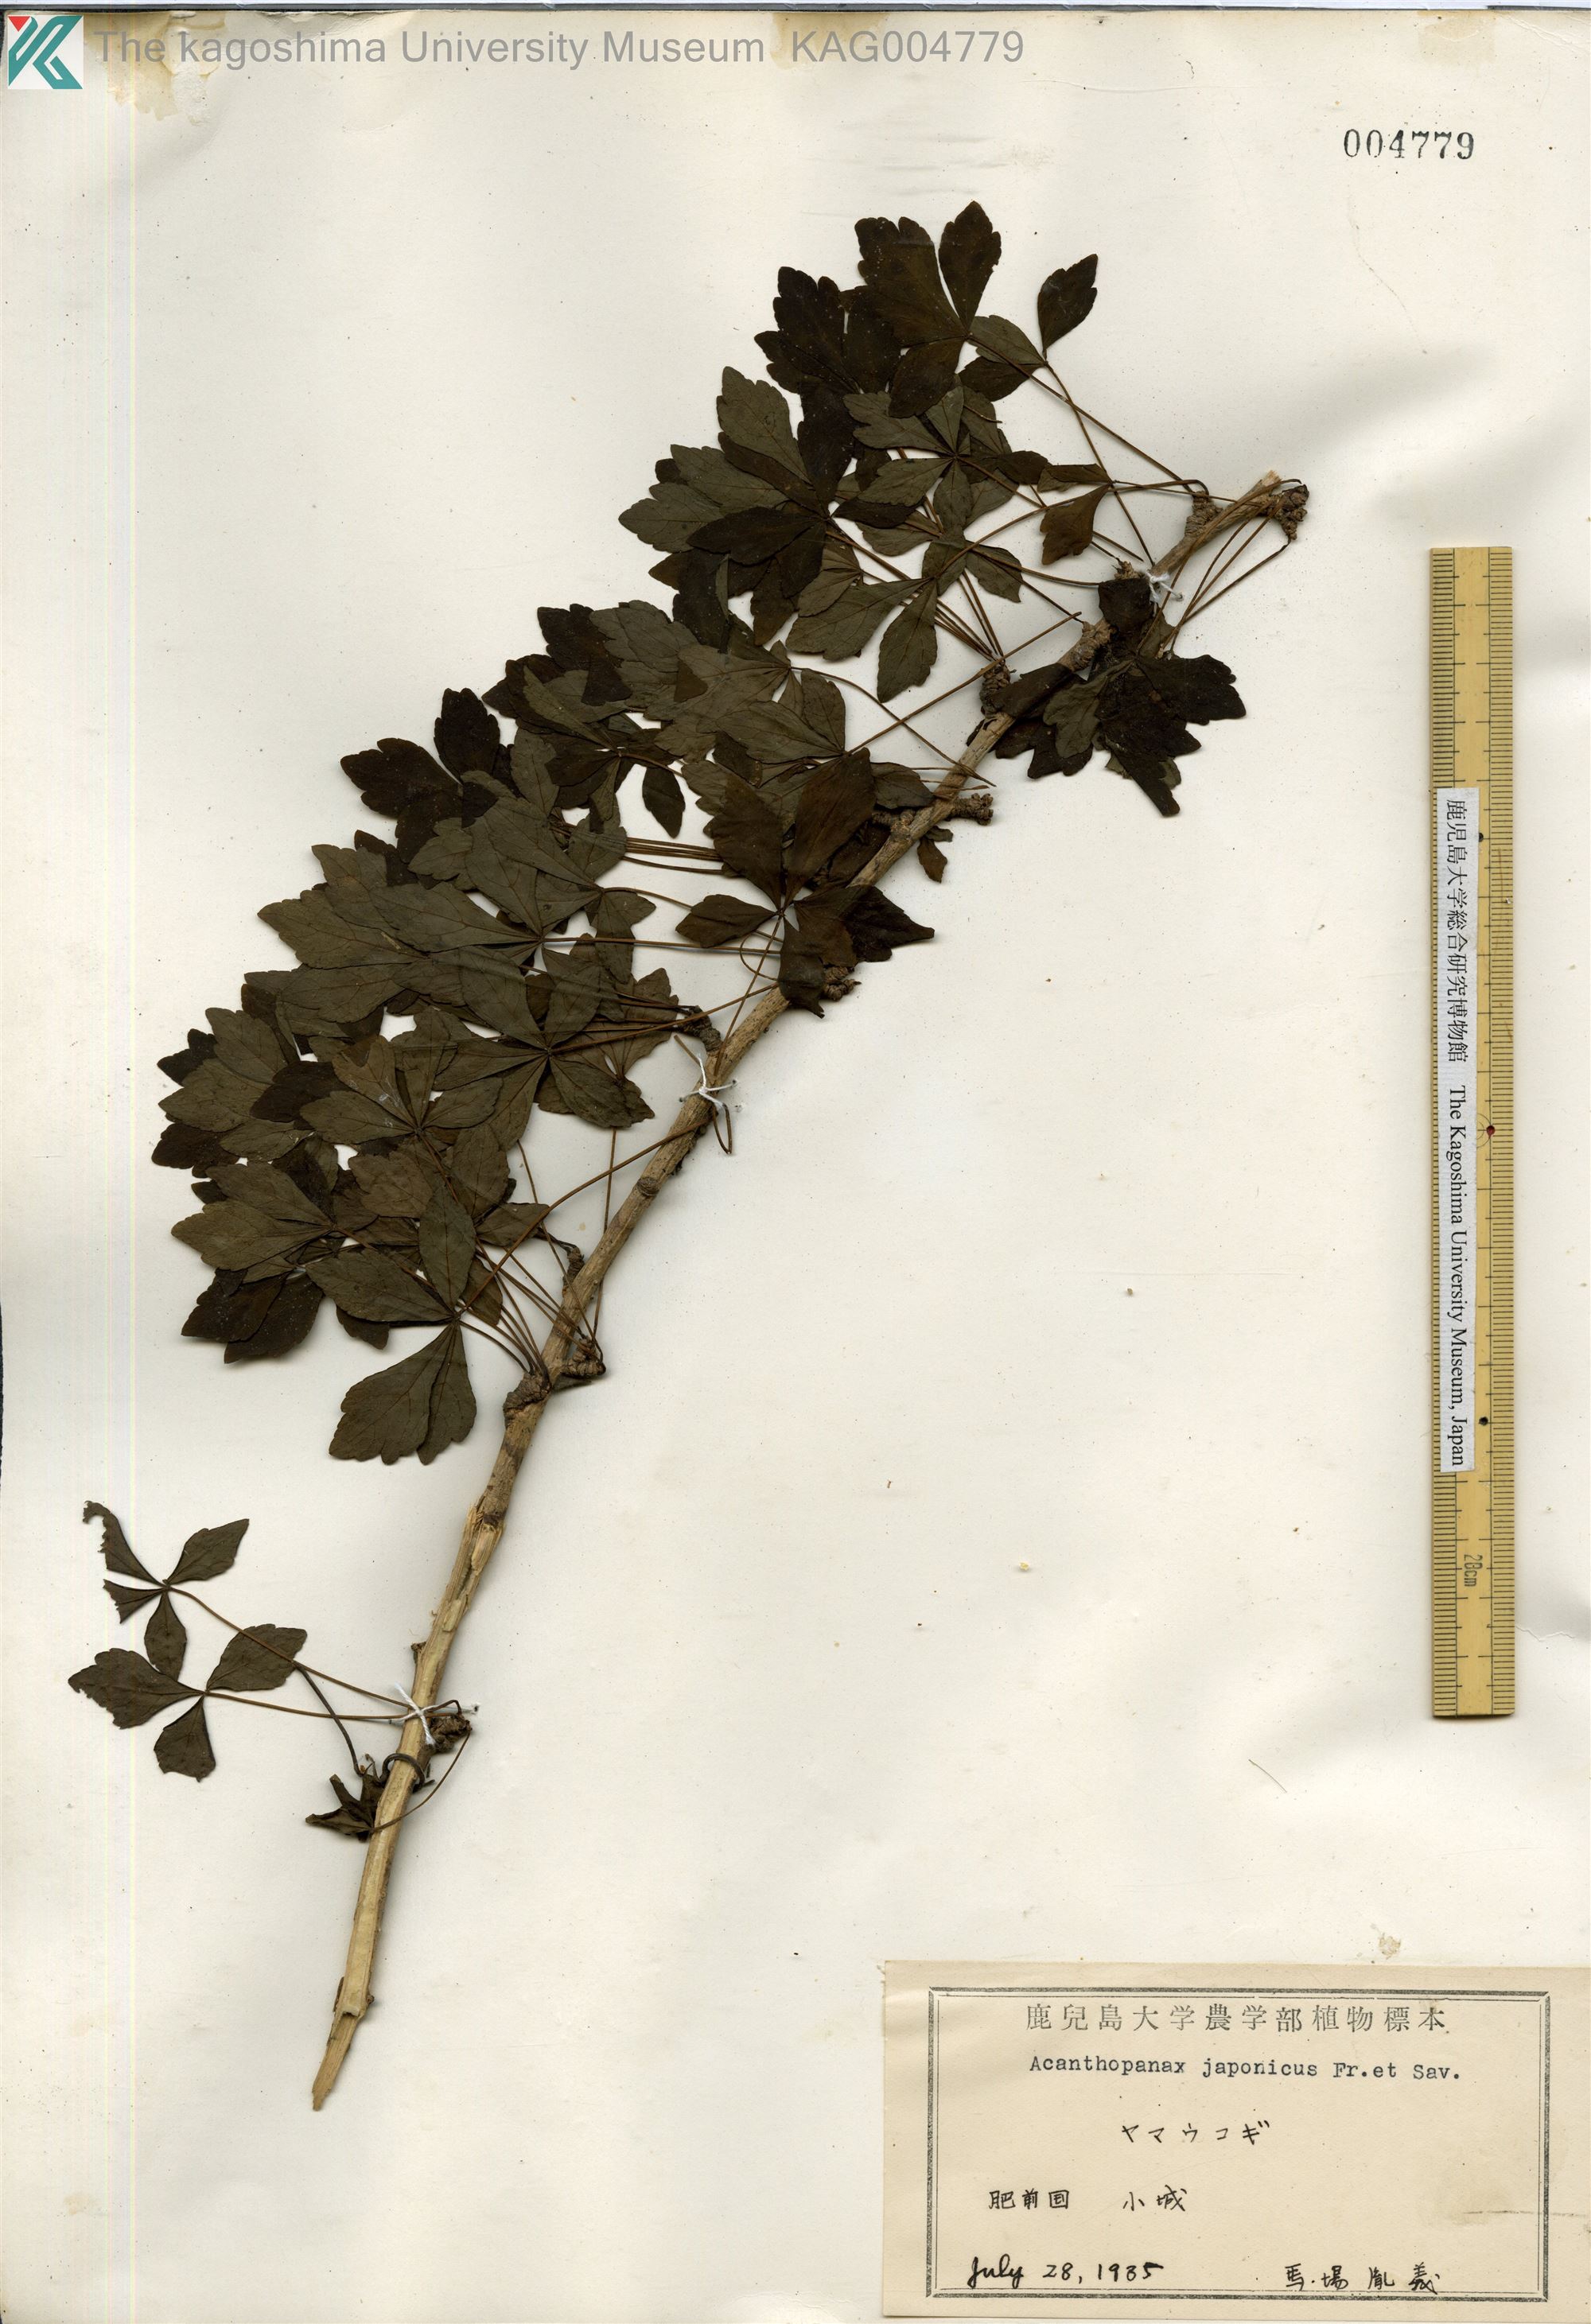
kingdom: Plantae
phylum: Tracheophyta
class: Magnoliopsida
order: Apiales
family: Araliaceae
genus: Eleutherococcus
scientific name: Eleutherococcus japonicus
